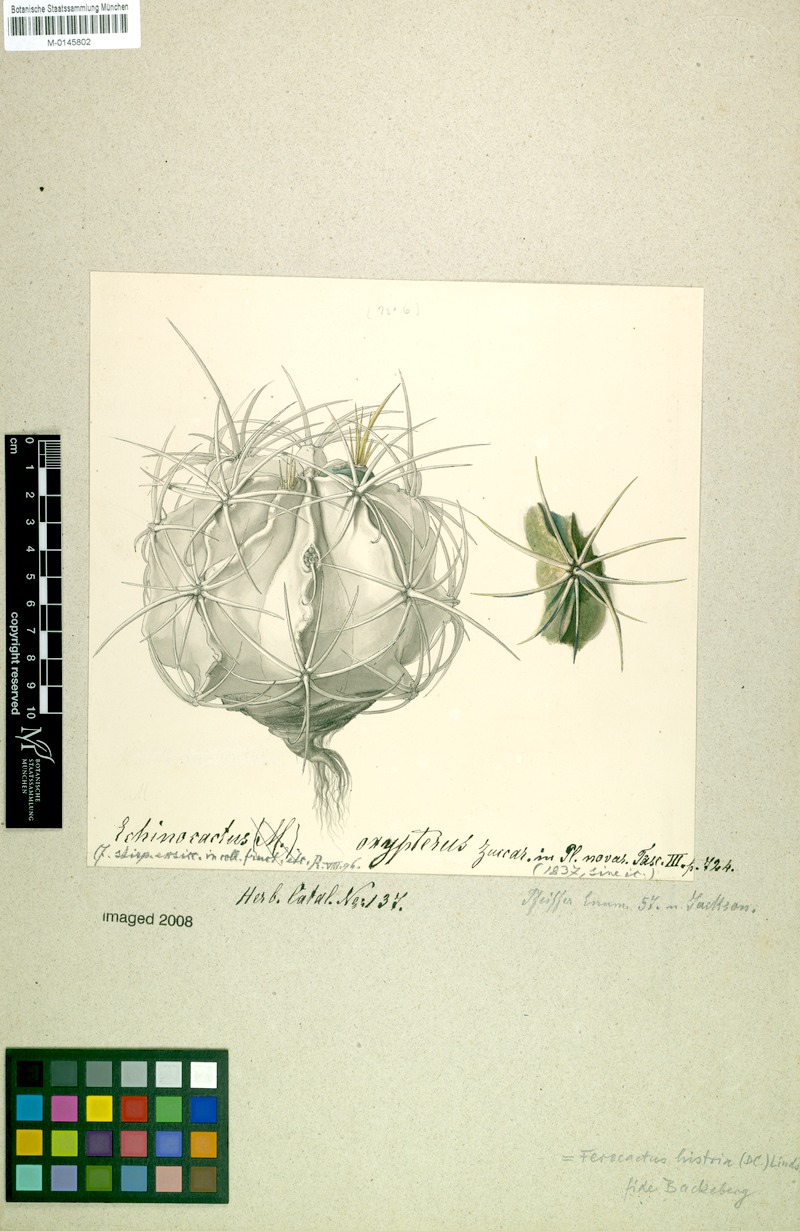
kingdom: Plantae
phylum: Tracheophyta
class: Magnoliopsida
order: Caryophyllales
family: Cactaceae
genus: Bisnaga
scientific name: Bisnaga histrix
